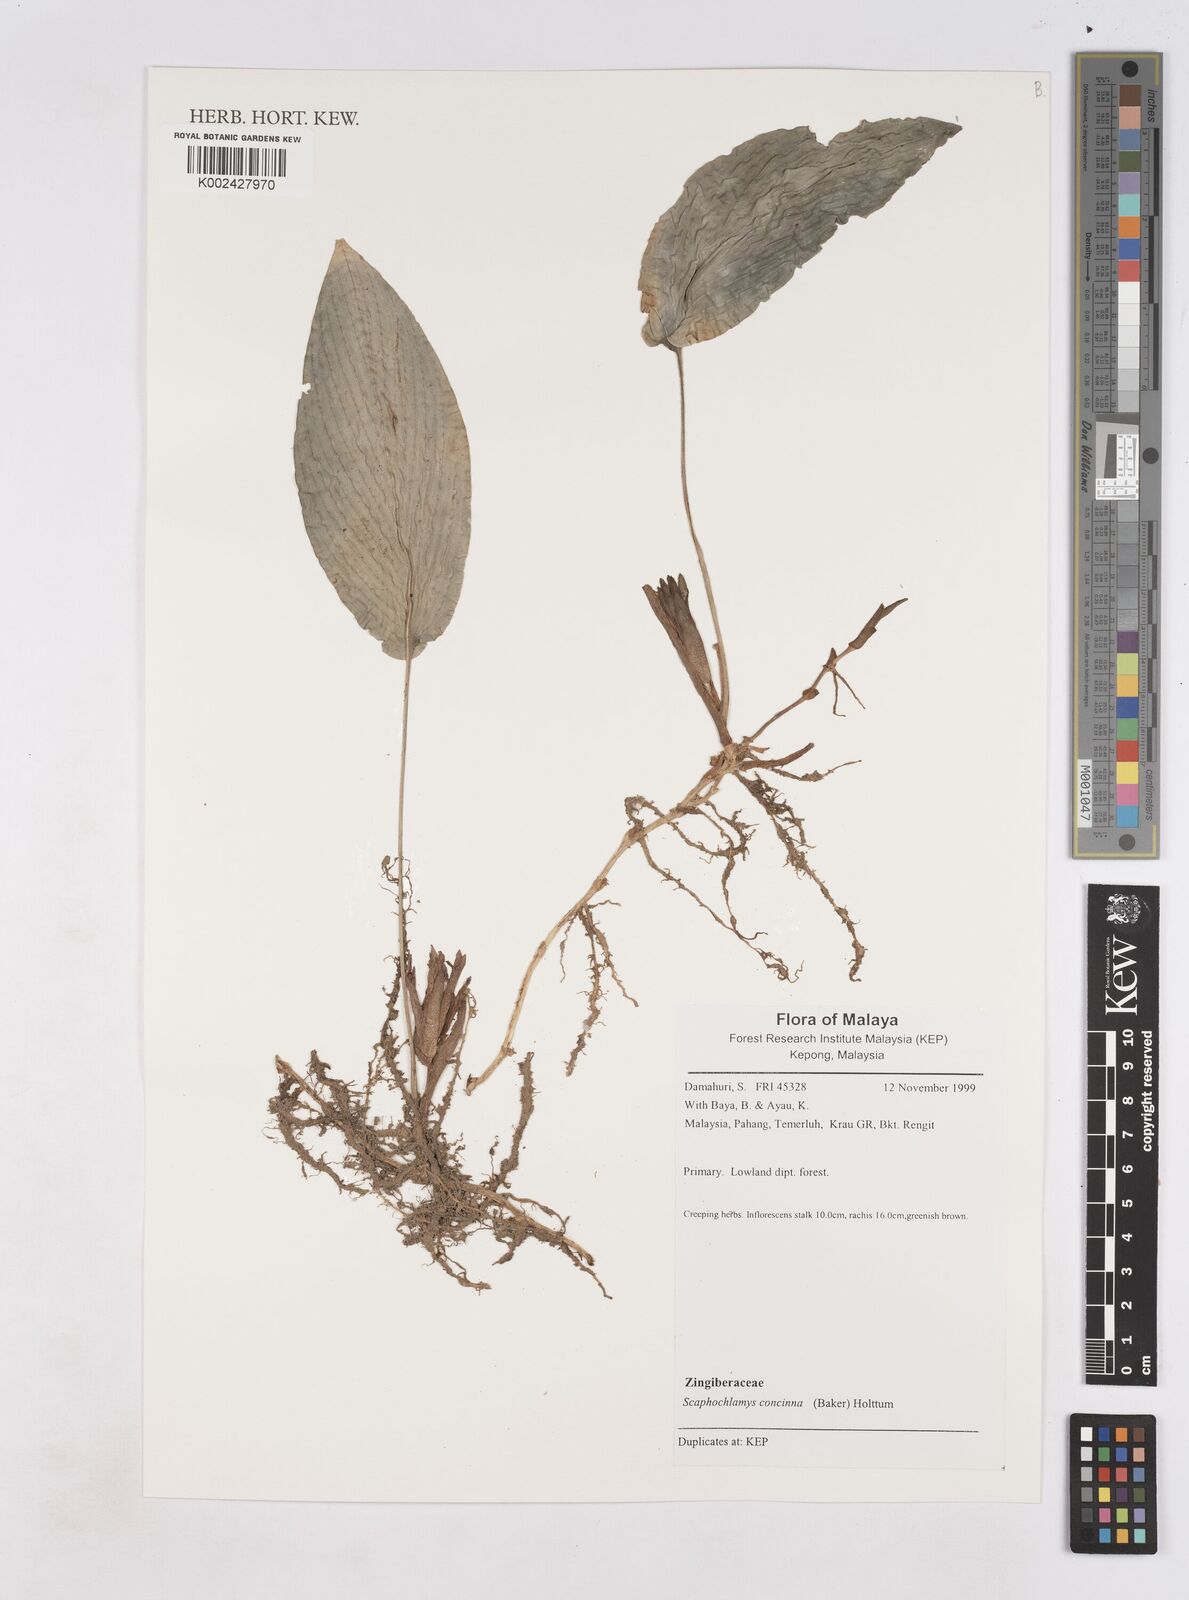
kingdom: Plantae
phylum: Tracheophyta
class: Liliopsida
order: Zingiberales
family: Zingiberaceae
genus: Scaphochlamys
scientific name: Scaphochlamys concinna
